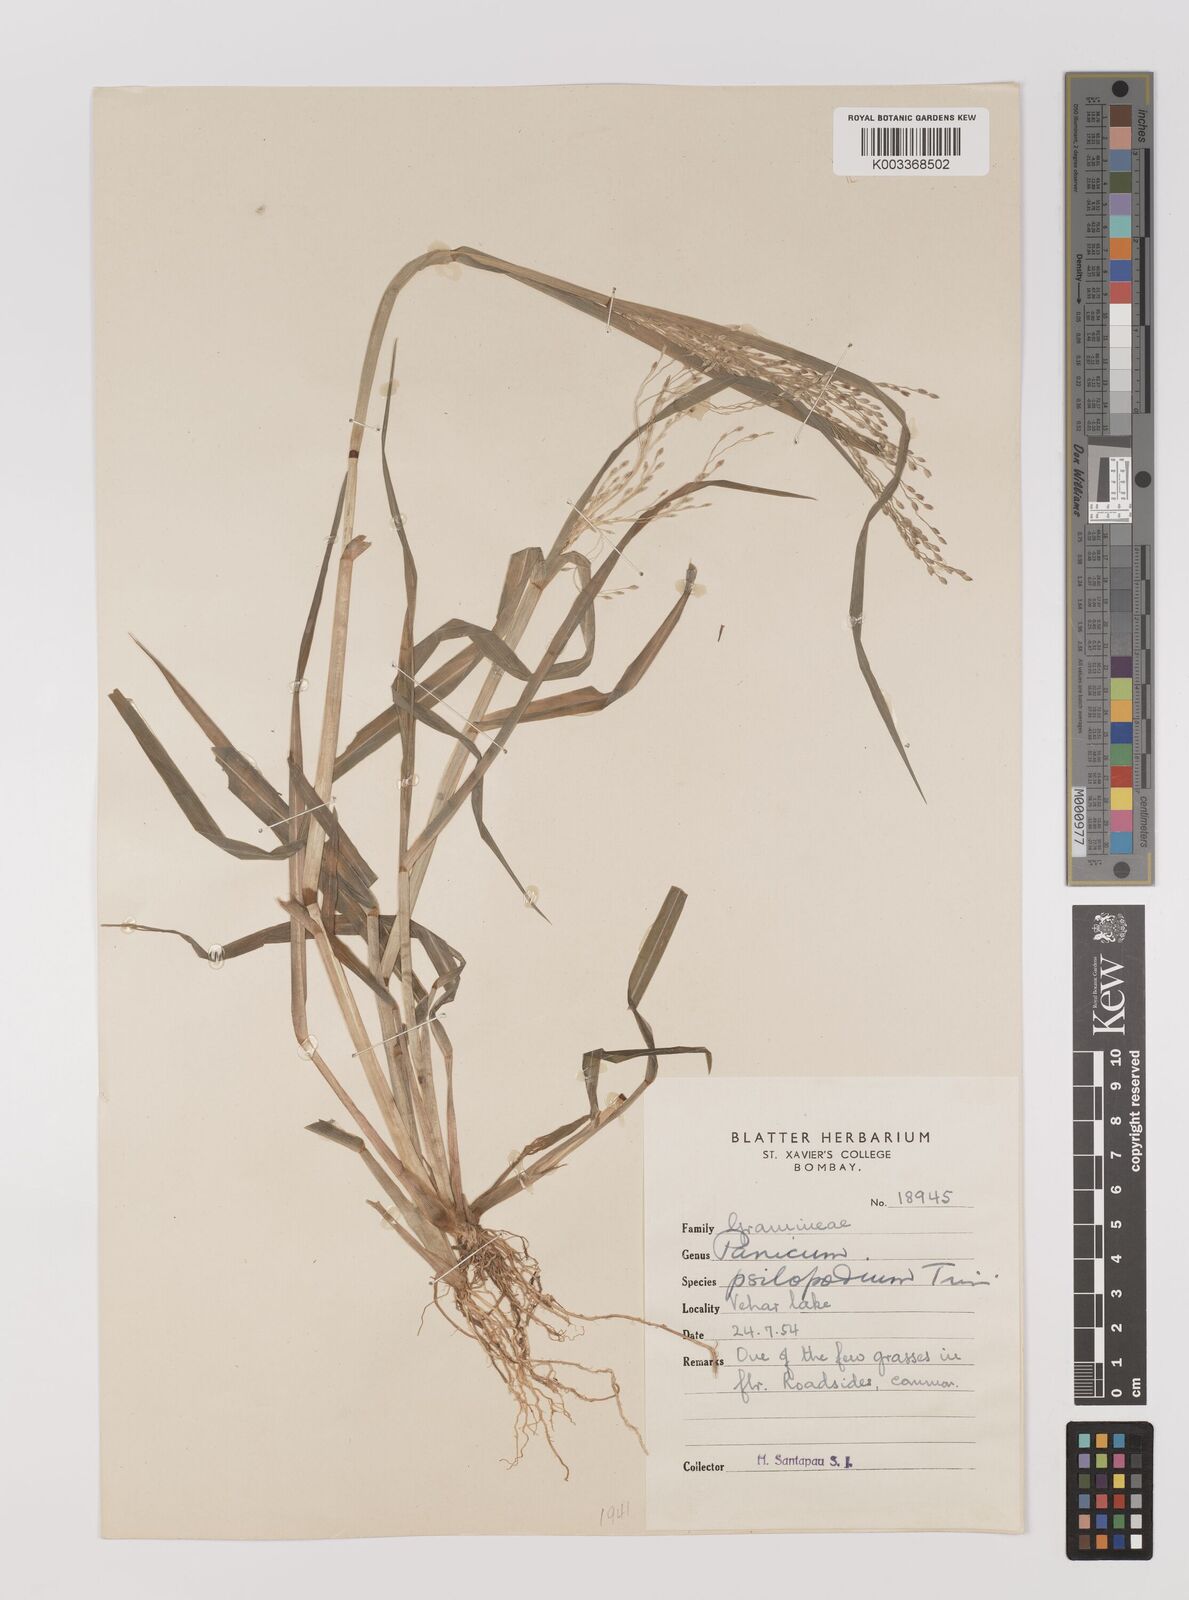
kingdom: Plantae
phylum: Tracheophyta
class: Liliopsida
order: Poales
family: Poaceae
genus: Panicum
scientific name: Panicum sumatrense
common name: Little millet
